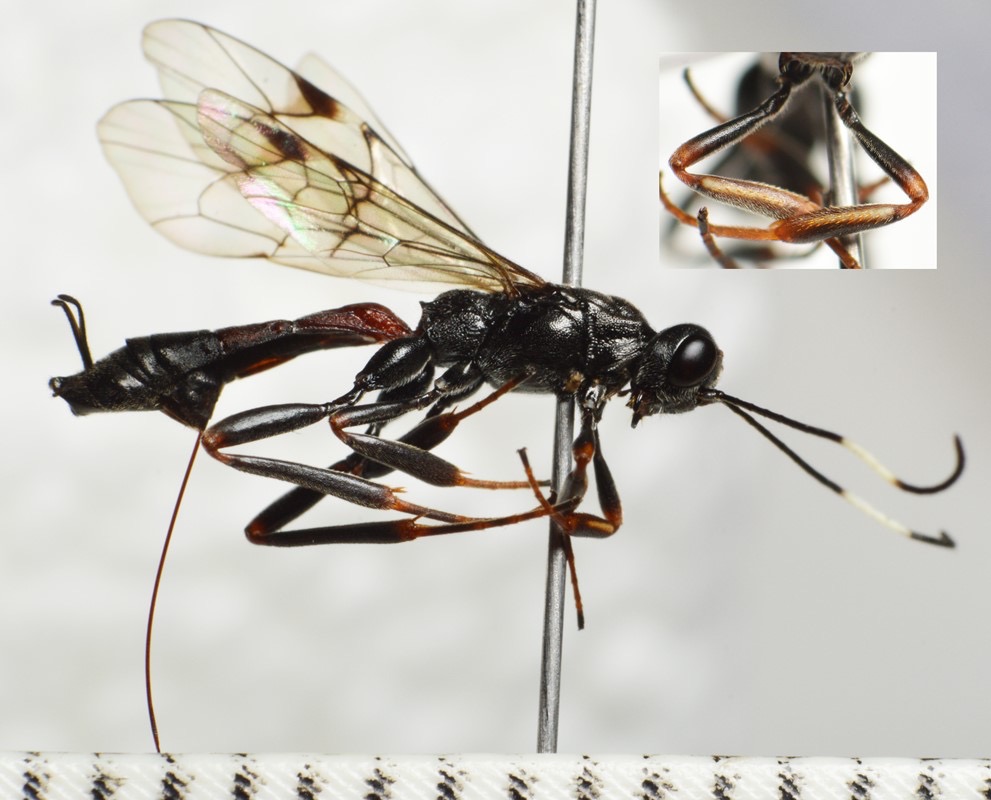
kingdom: Animalia
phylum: Arthropoda
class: Insecta
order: Hymenoptera
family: Ichneumonidae
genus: Xorides
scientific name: Xorides irrigator
